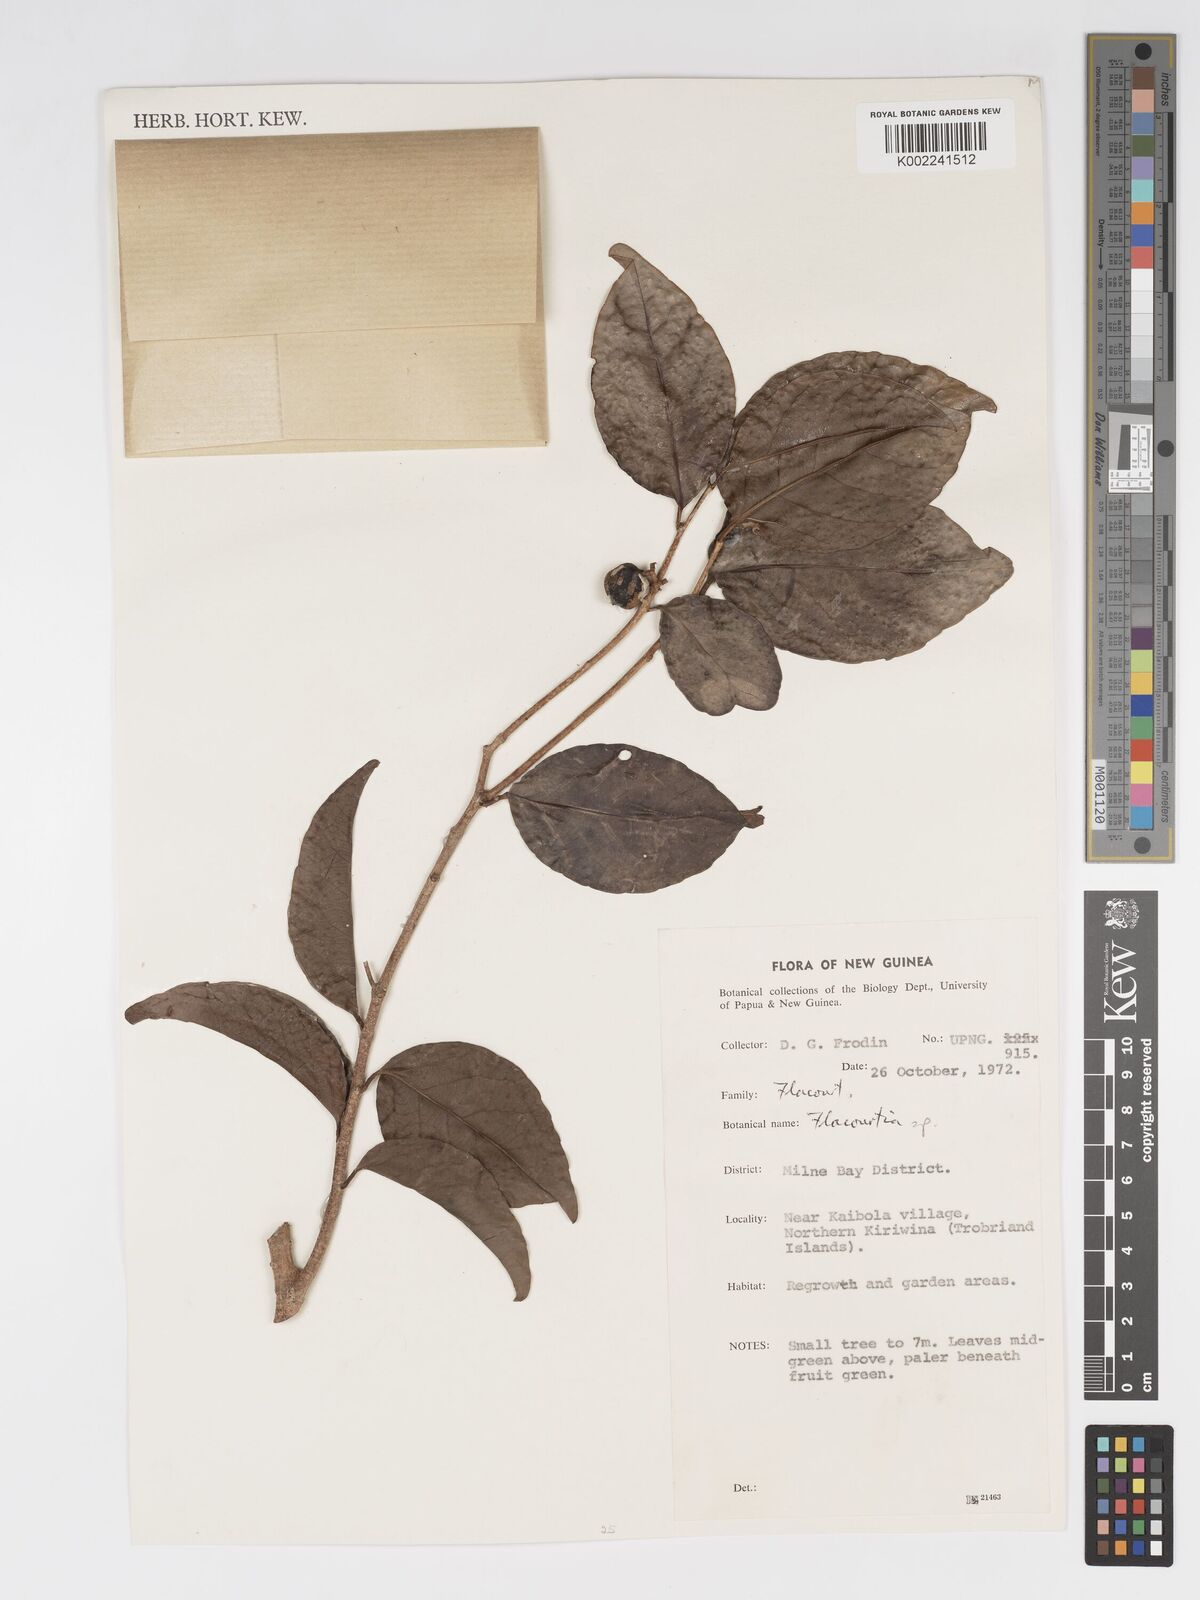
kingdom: Plantae
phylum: Tracheophyta
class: Magnoliopsida
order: Malpighiales
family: Salicaceae
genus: Flacourtia
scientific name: Flacourtia
